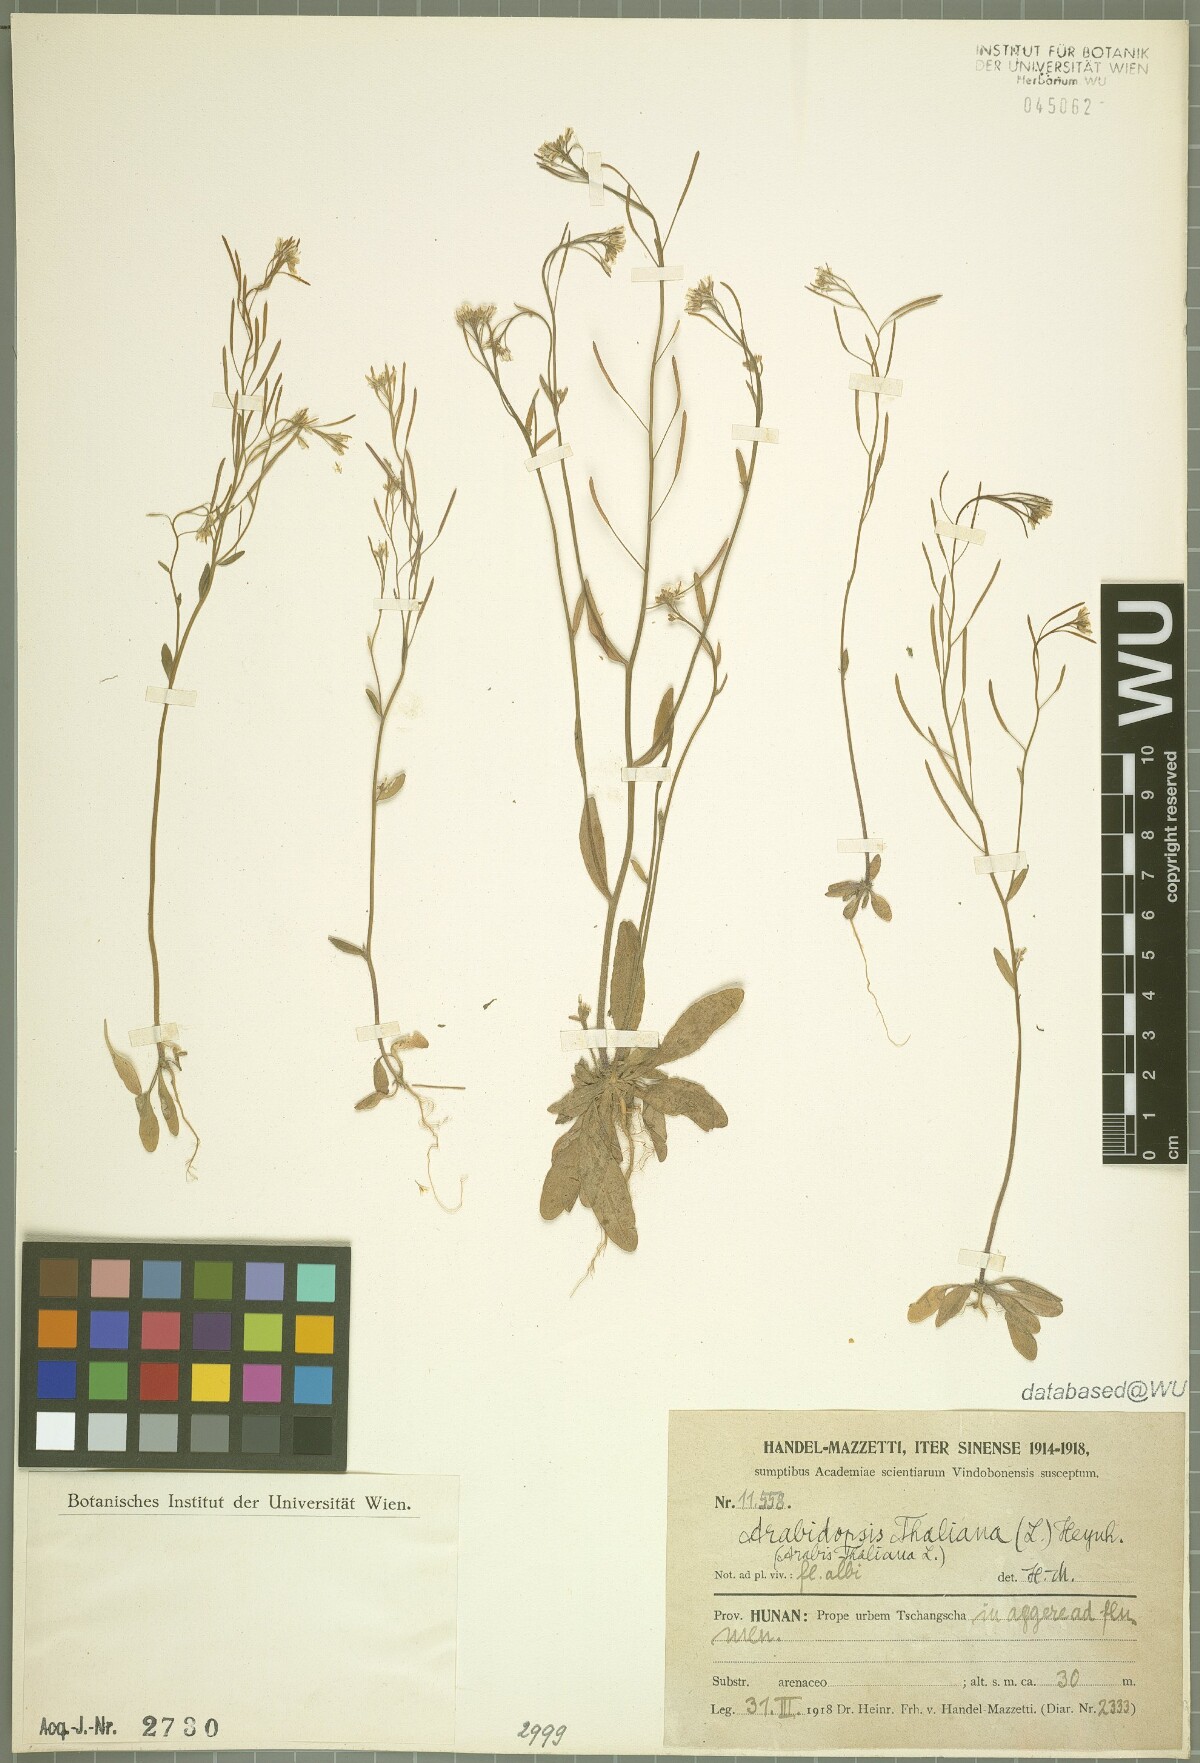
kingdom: Plantae
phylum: Tracheophyta
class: Magnoliopsida
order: Brassicales
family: Brassicaceae
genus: Arabidopsis
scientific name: Arabidopsis thaliana
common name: Thale cress
